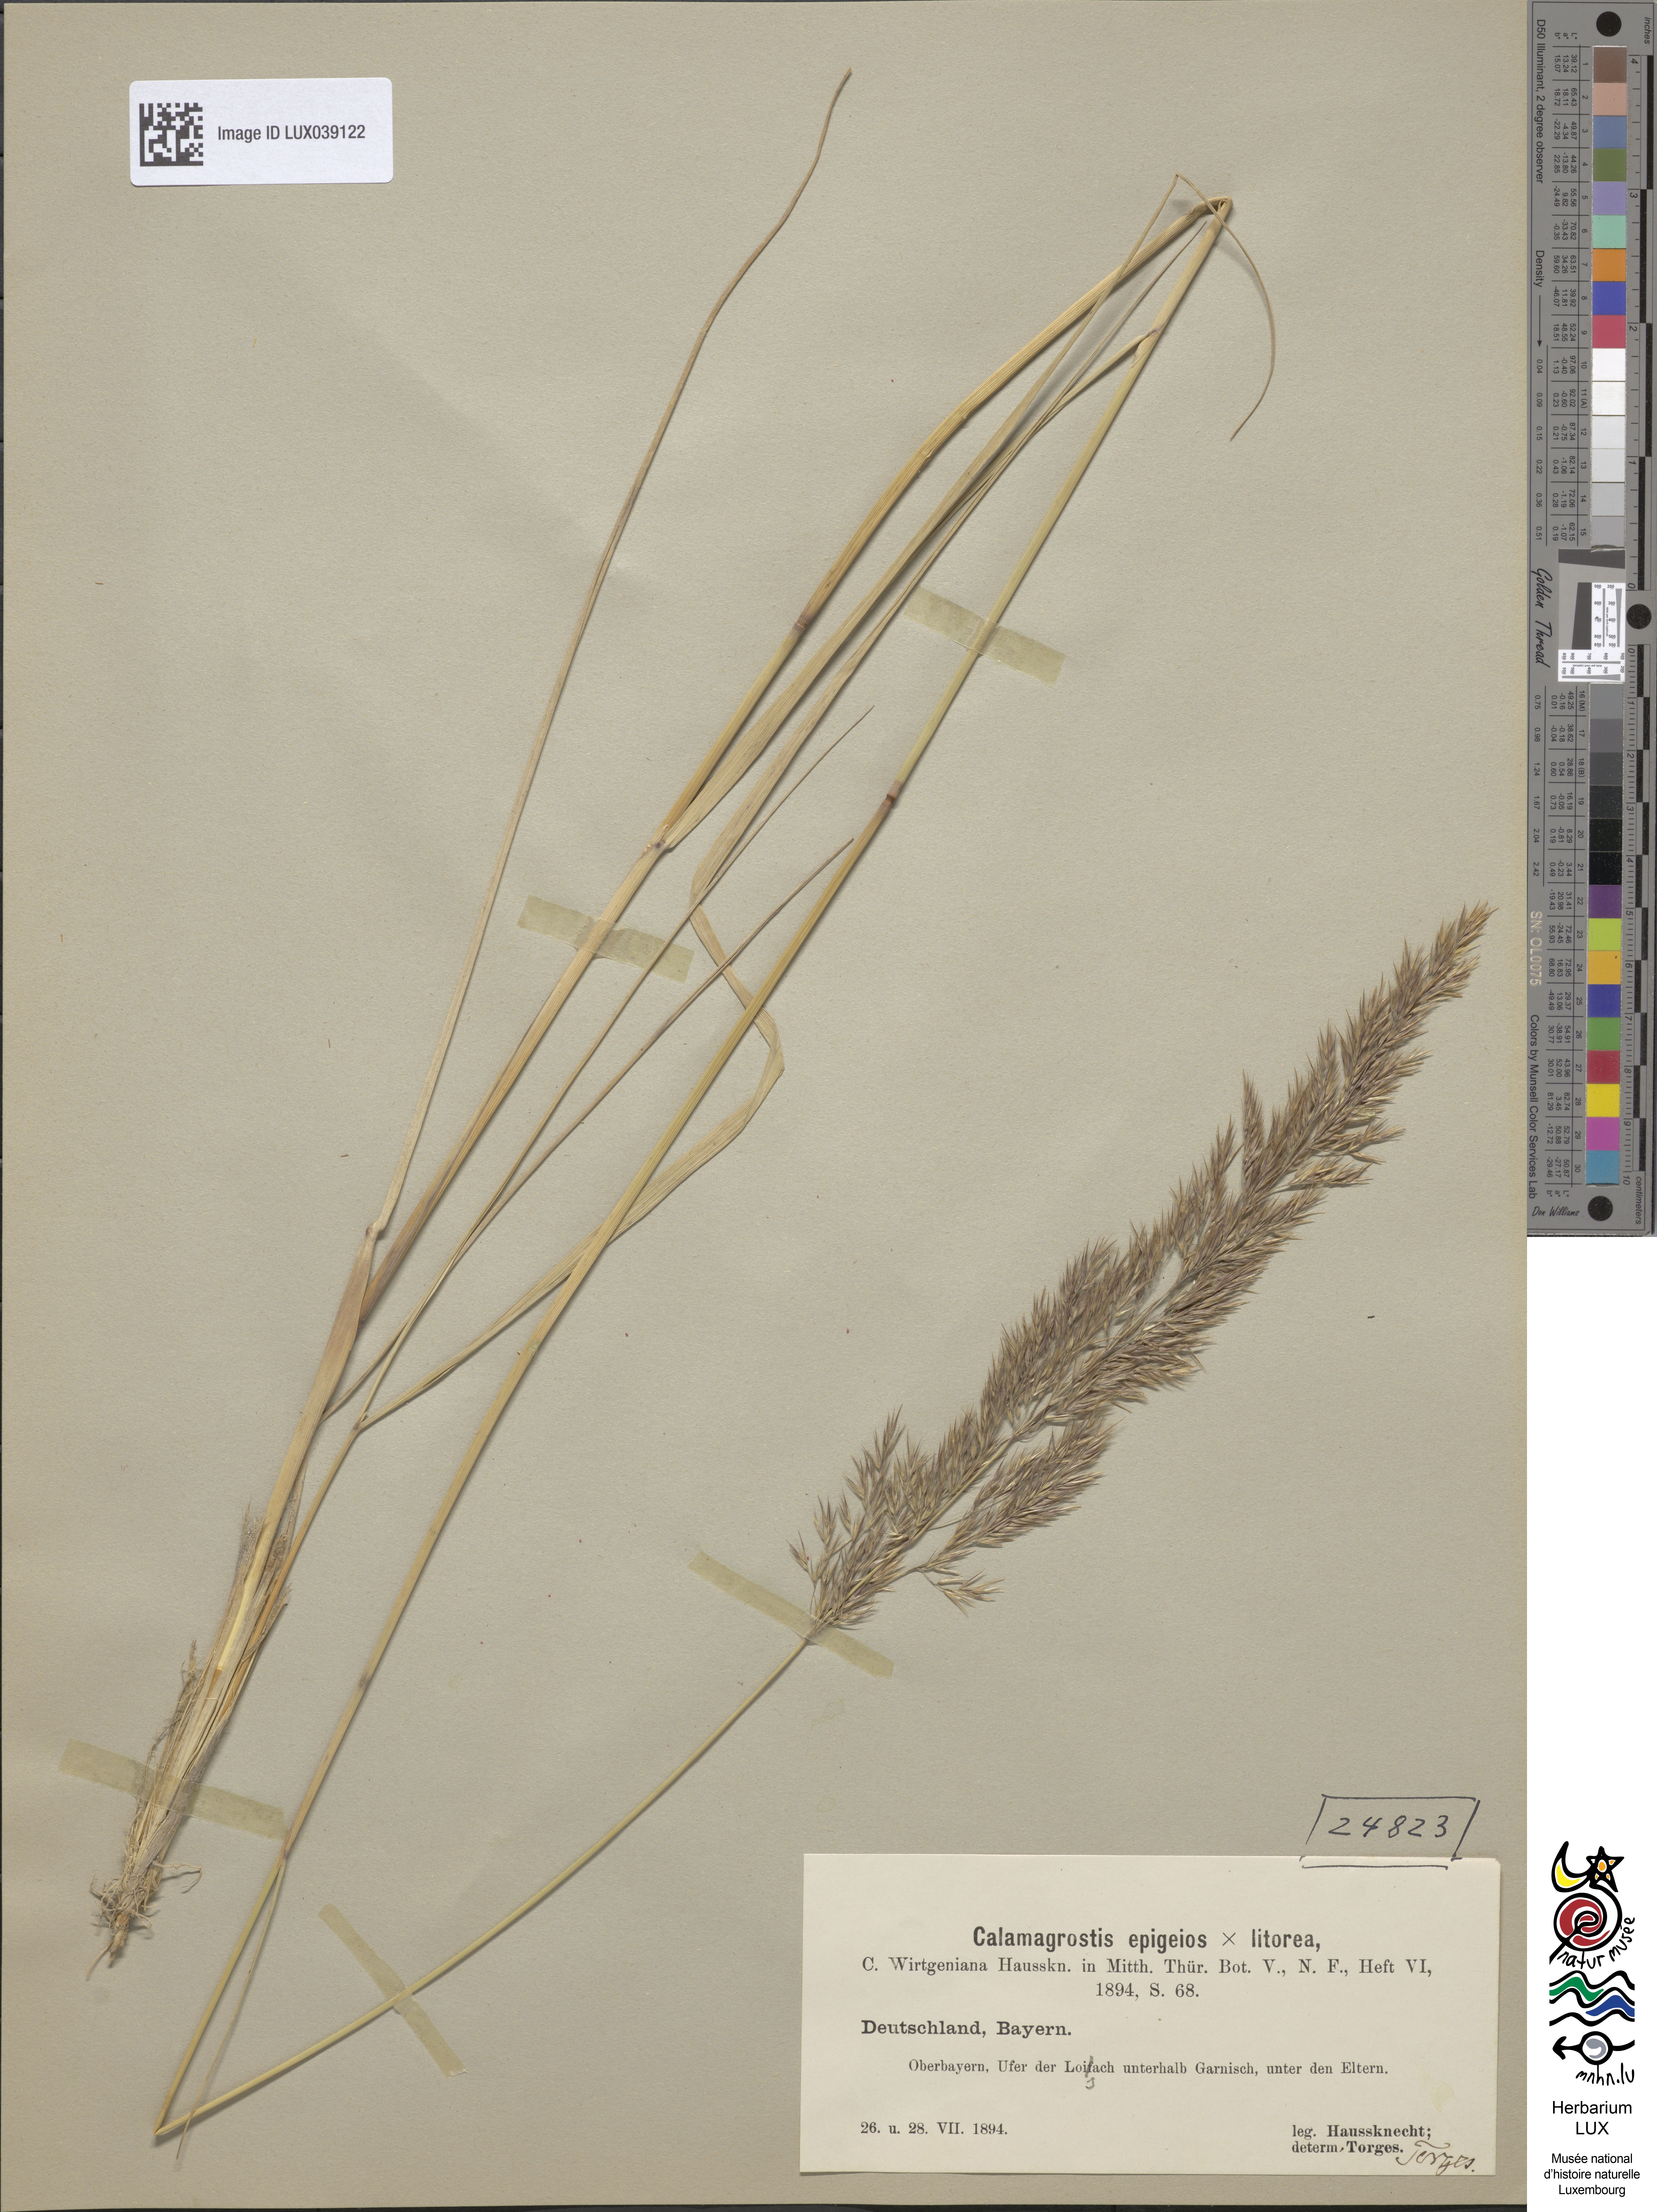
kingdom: Plantae
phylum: Tracheophyta
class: Liliopsida
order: Poales
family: Poaceae
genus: Calamagrostis
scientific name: Calamagrostis
